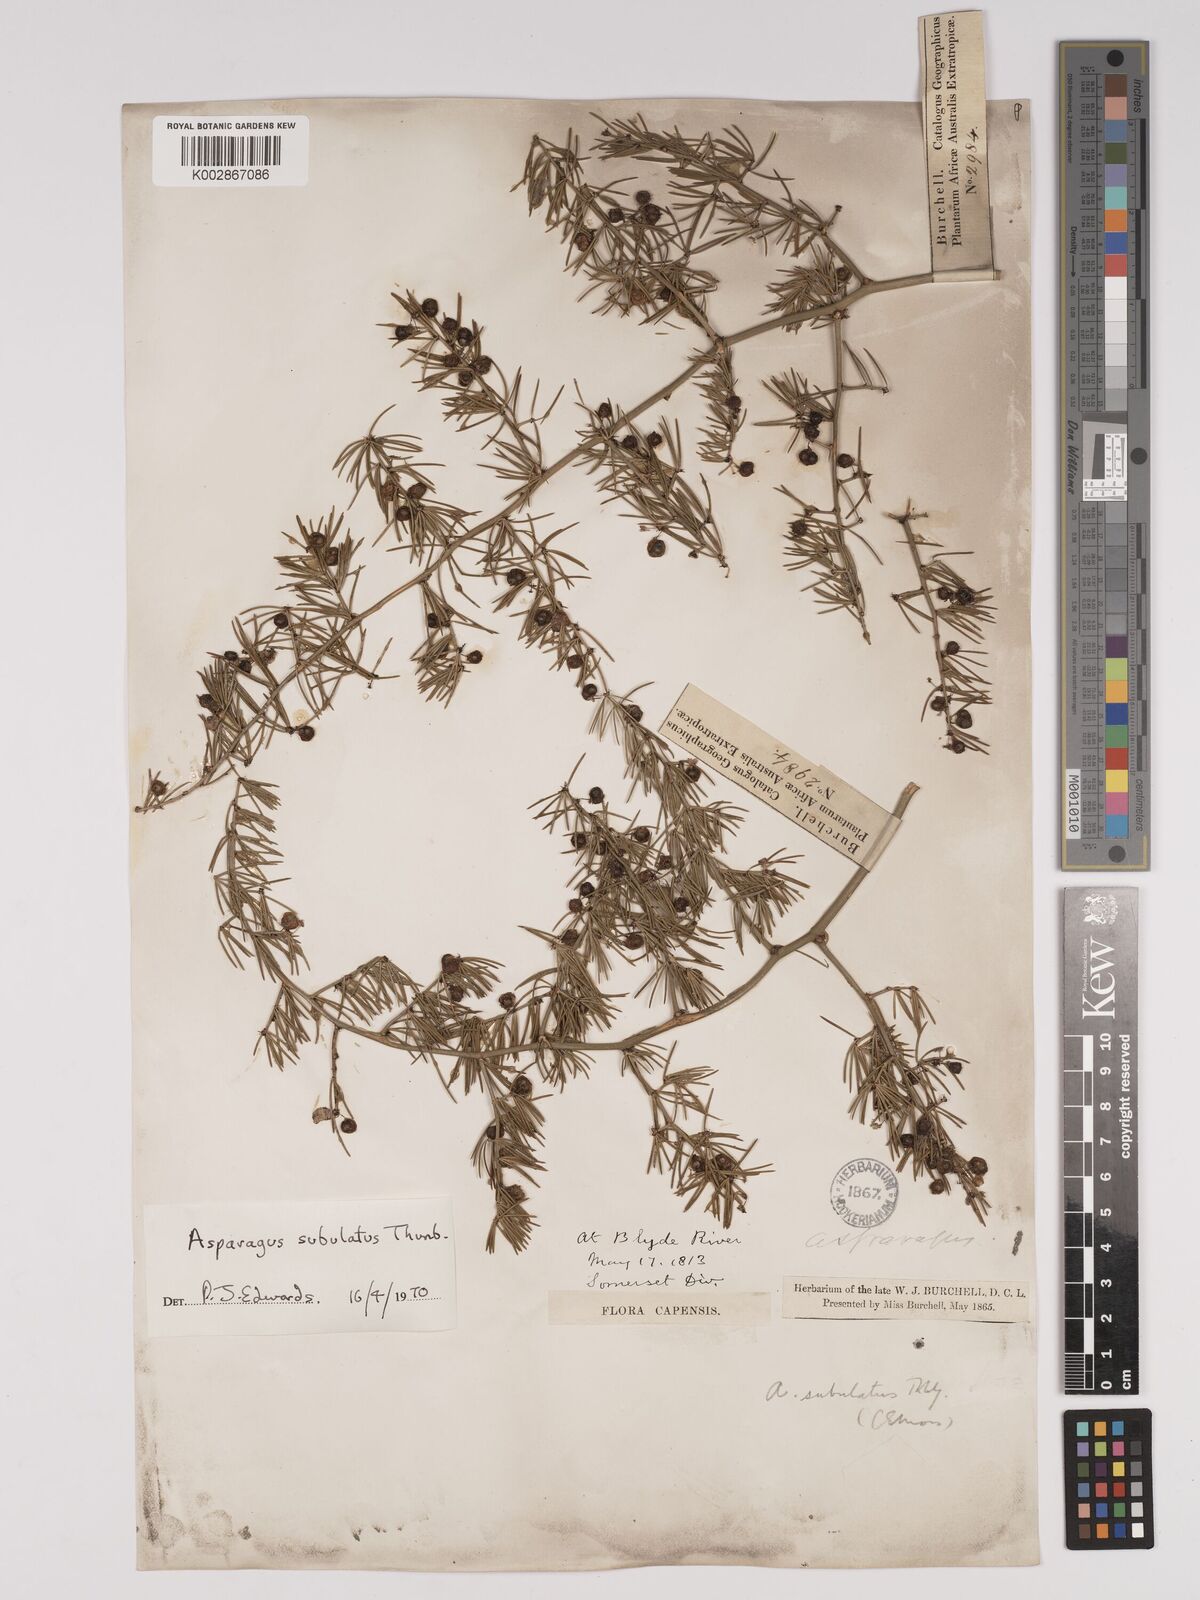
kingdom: Plantae
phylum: Tracheophyta
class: Liliopsida
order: Asparagales
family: Asparagaceae
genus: Asparagus
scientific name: Asparagus subulatus
